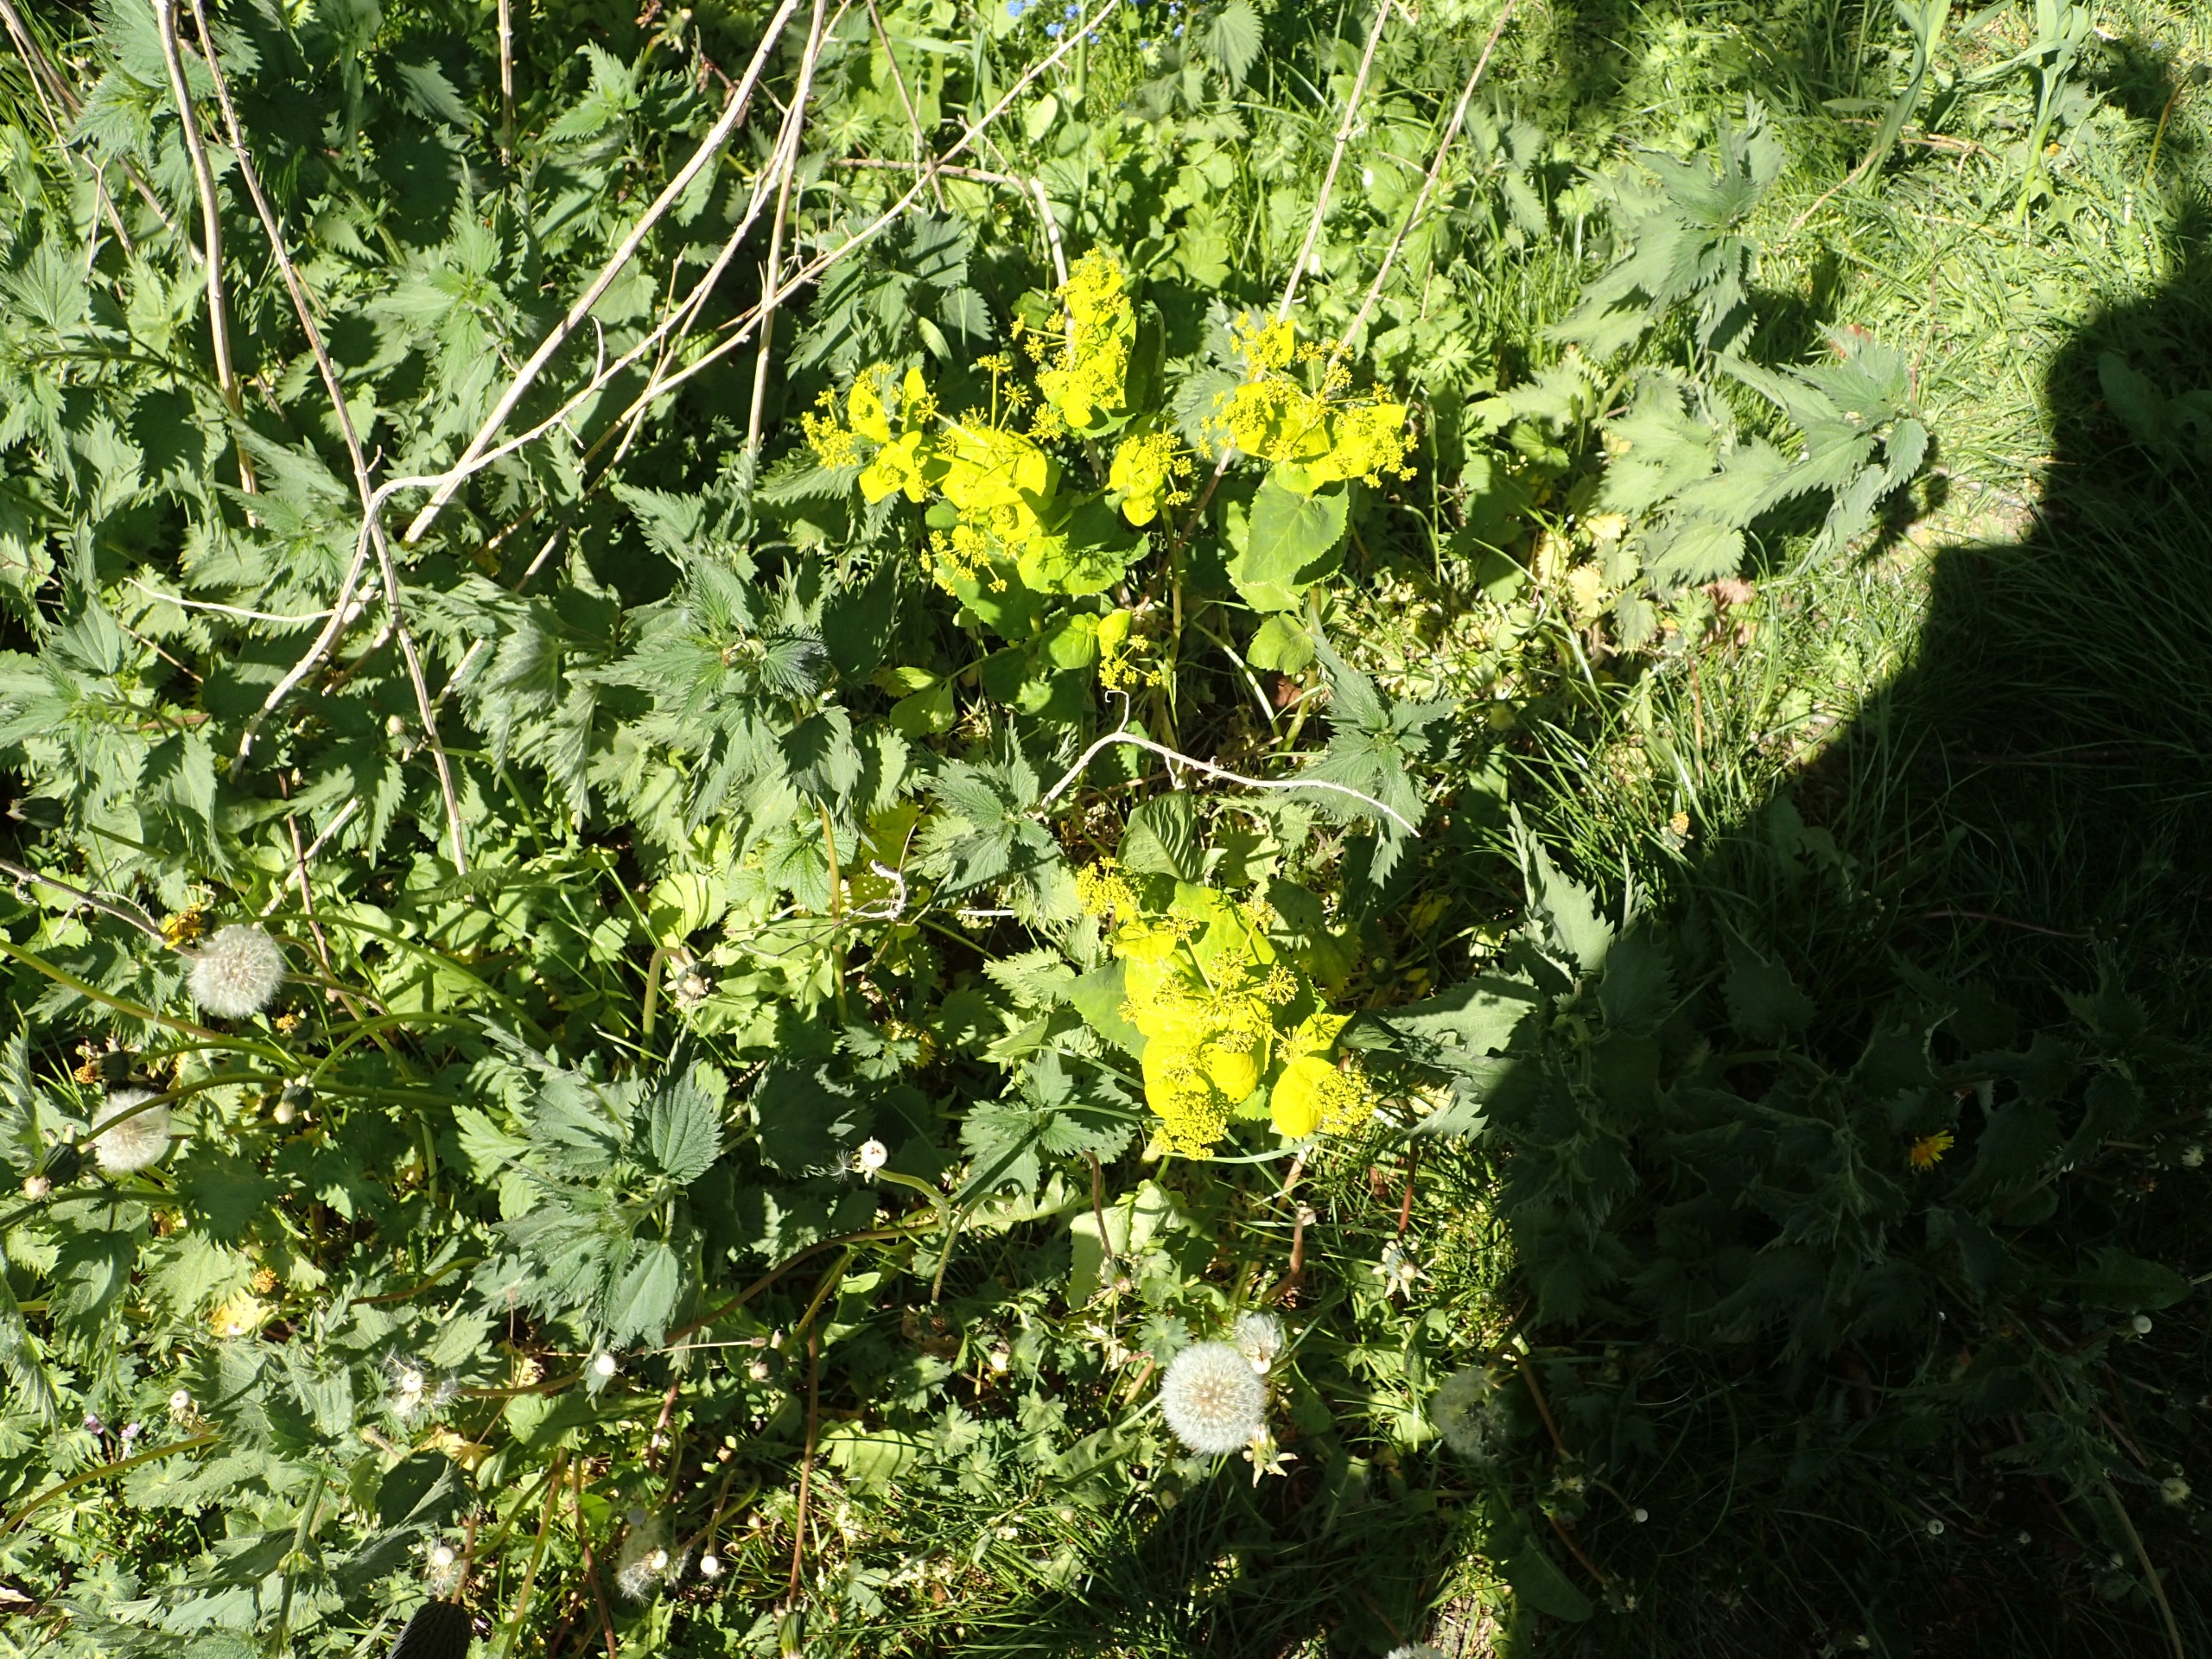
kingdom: Plantae
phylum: Tracheophyta
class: Magnoliopsida
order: Apiales
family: Apiaceae
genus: Smyrnium
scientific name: Smyrnium perfoliatum
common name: Lundgylden
